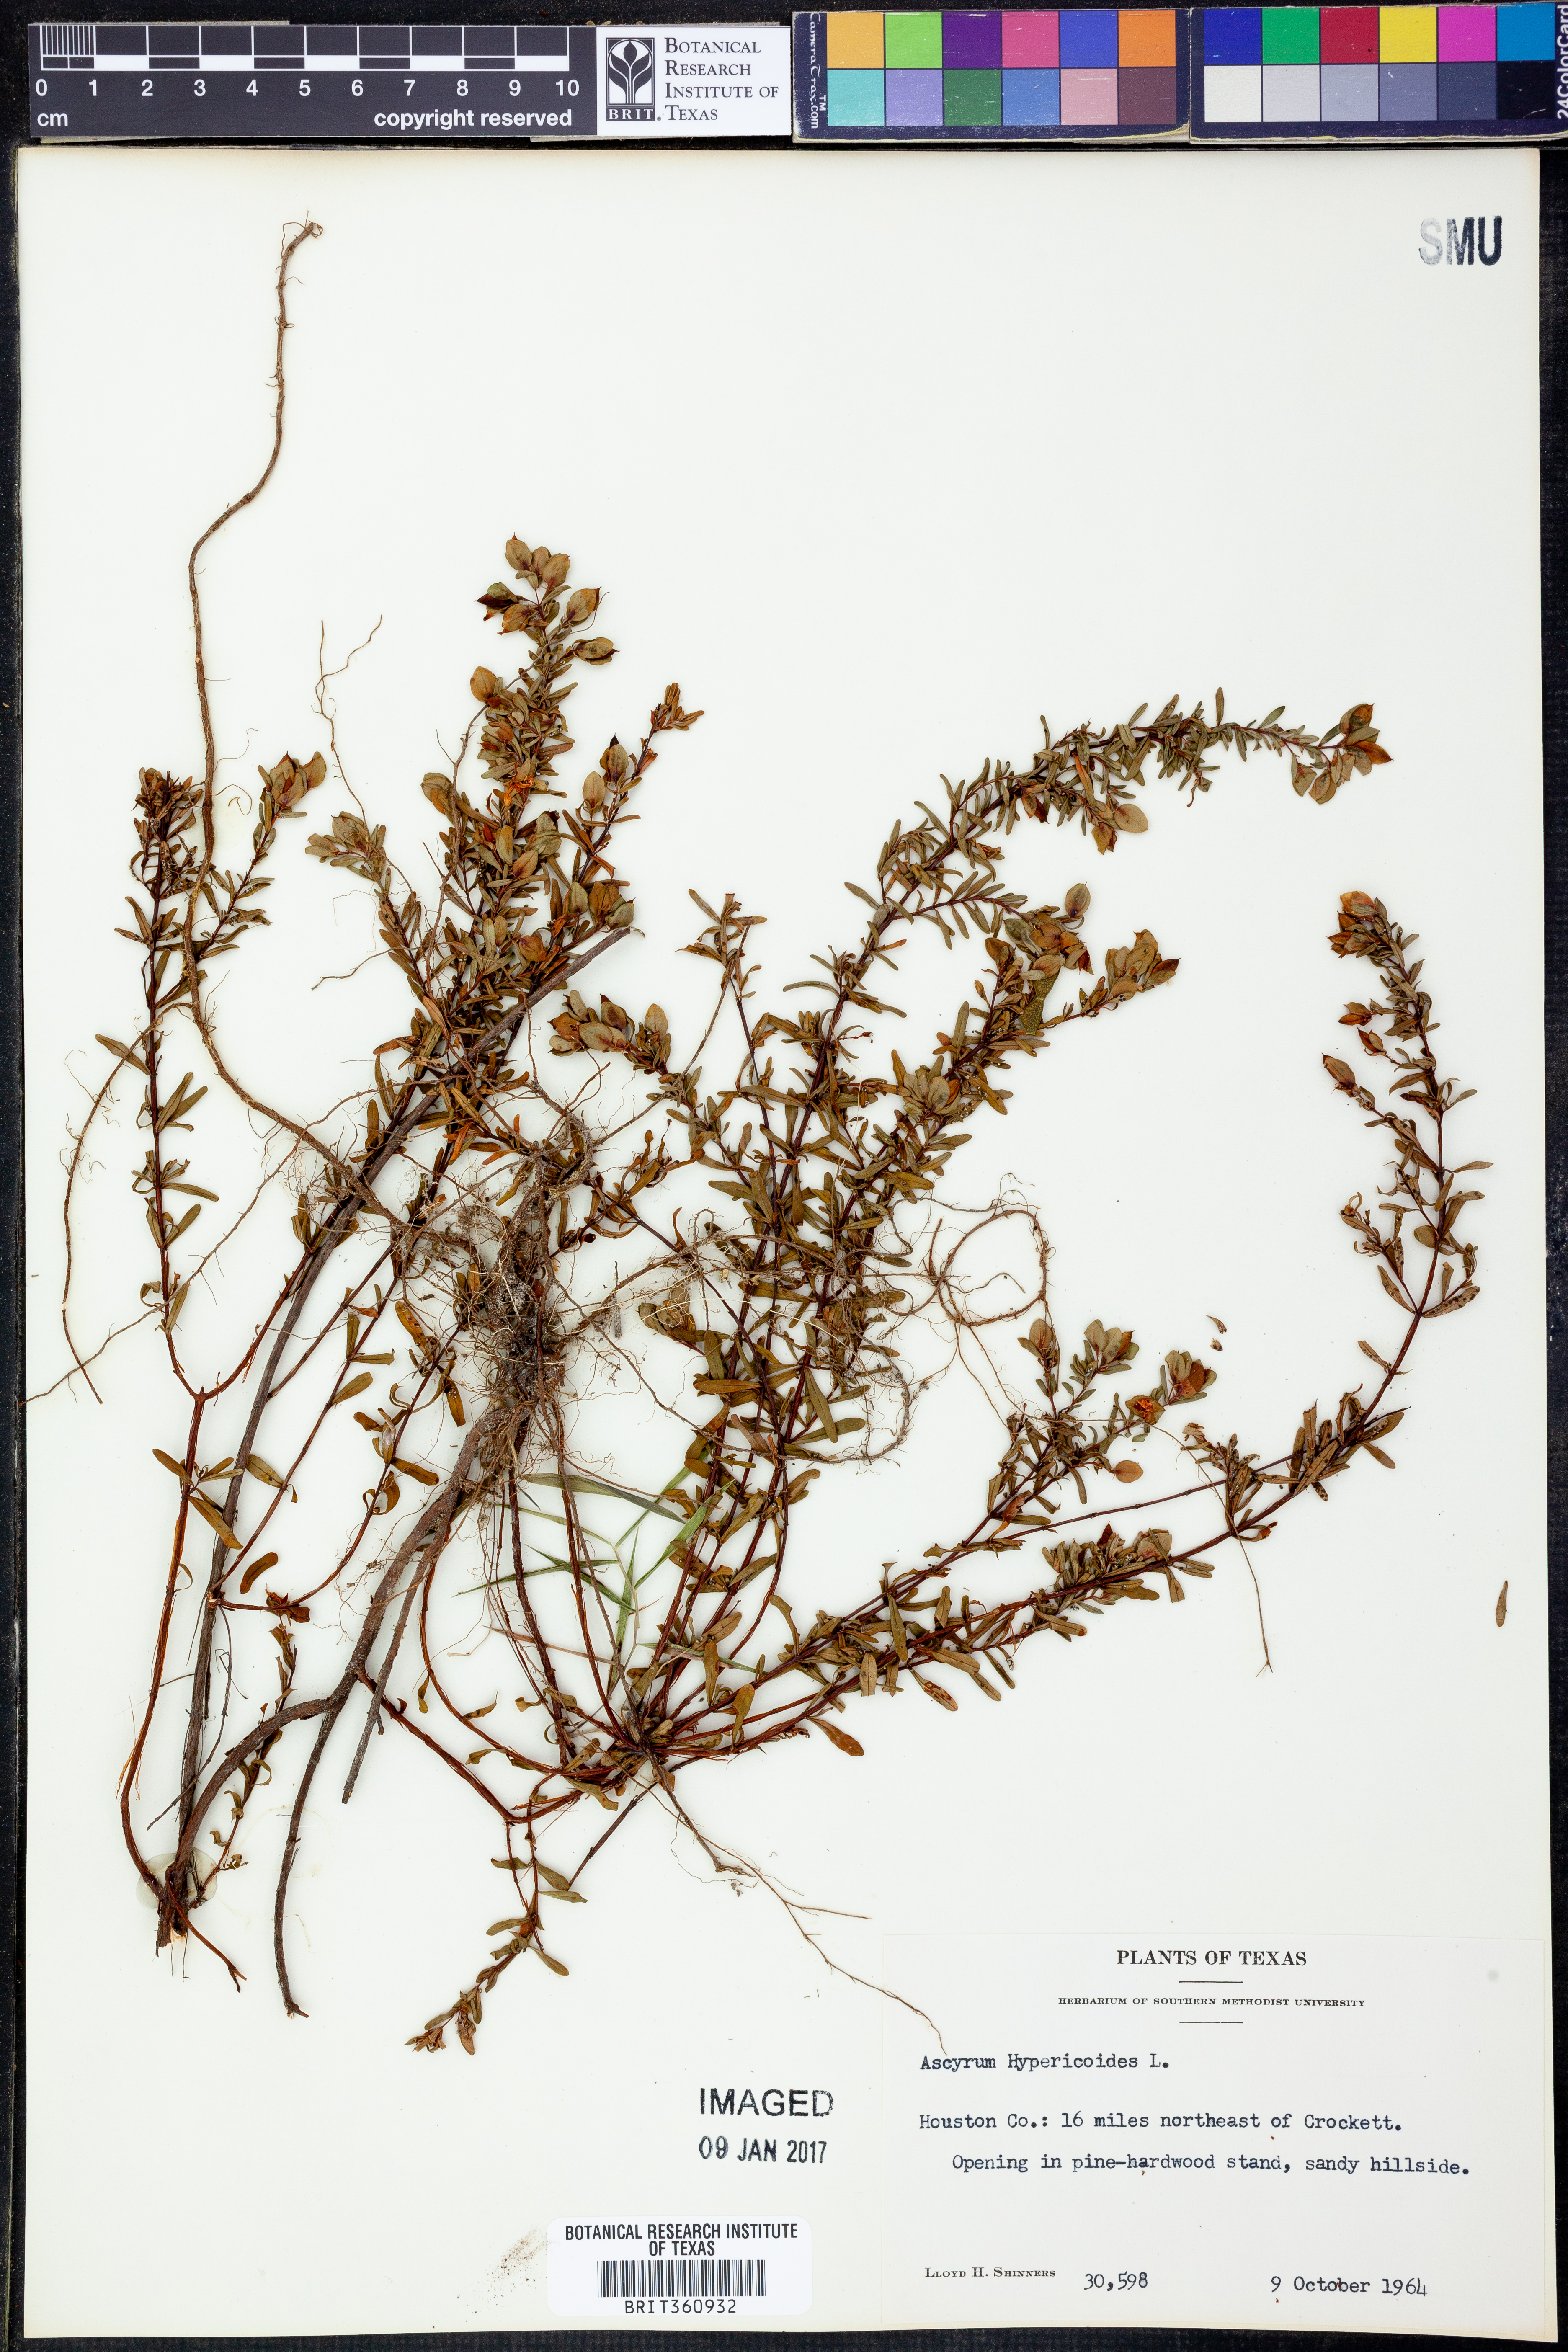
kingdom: Plantae
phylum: Tracheophyta
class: Magnoliopsida
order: Malpighiales
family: Hypericaceae
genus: Hypericum
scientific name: Hypericum hypericoides
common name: St. andrew's cross
